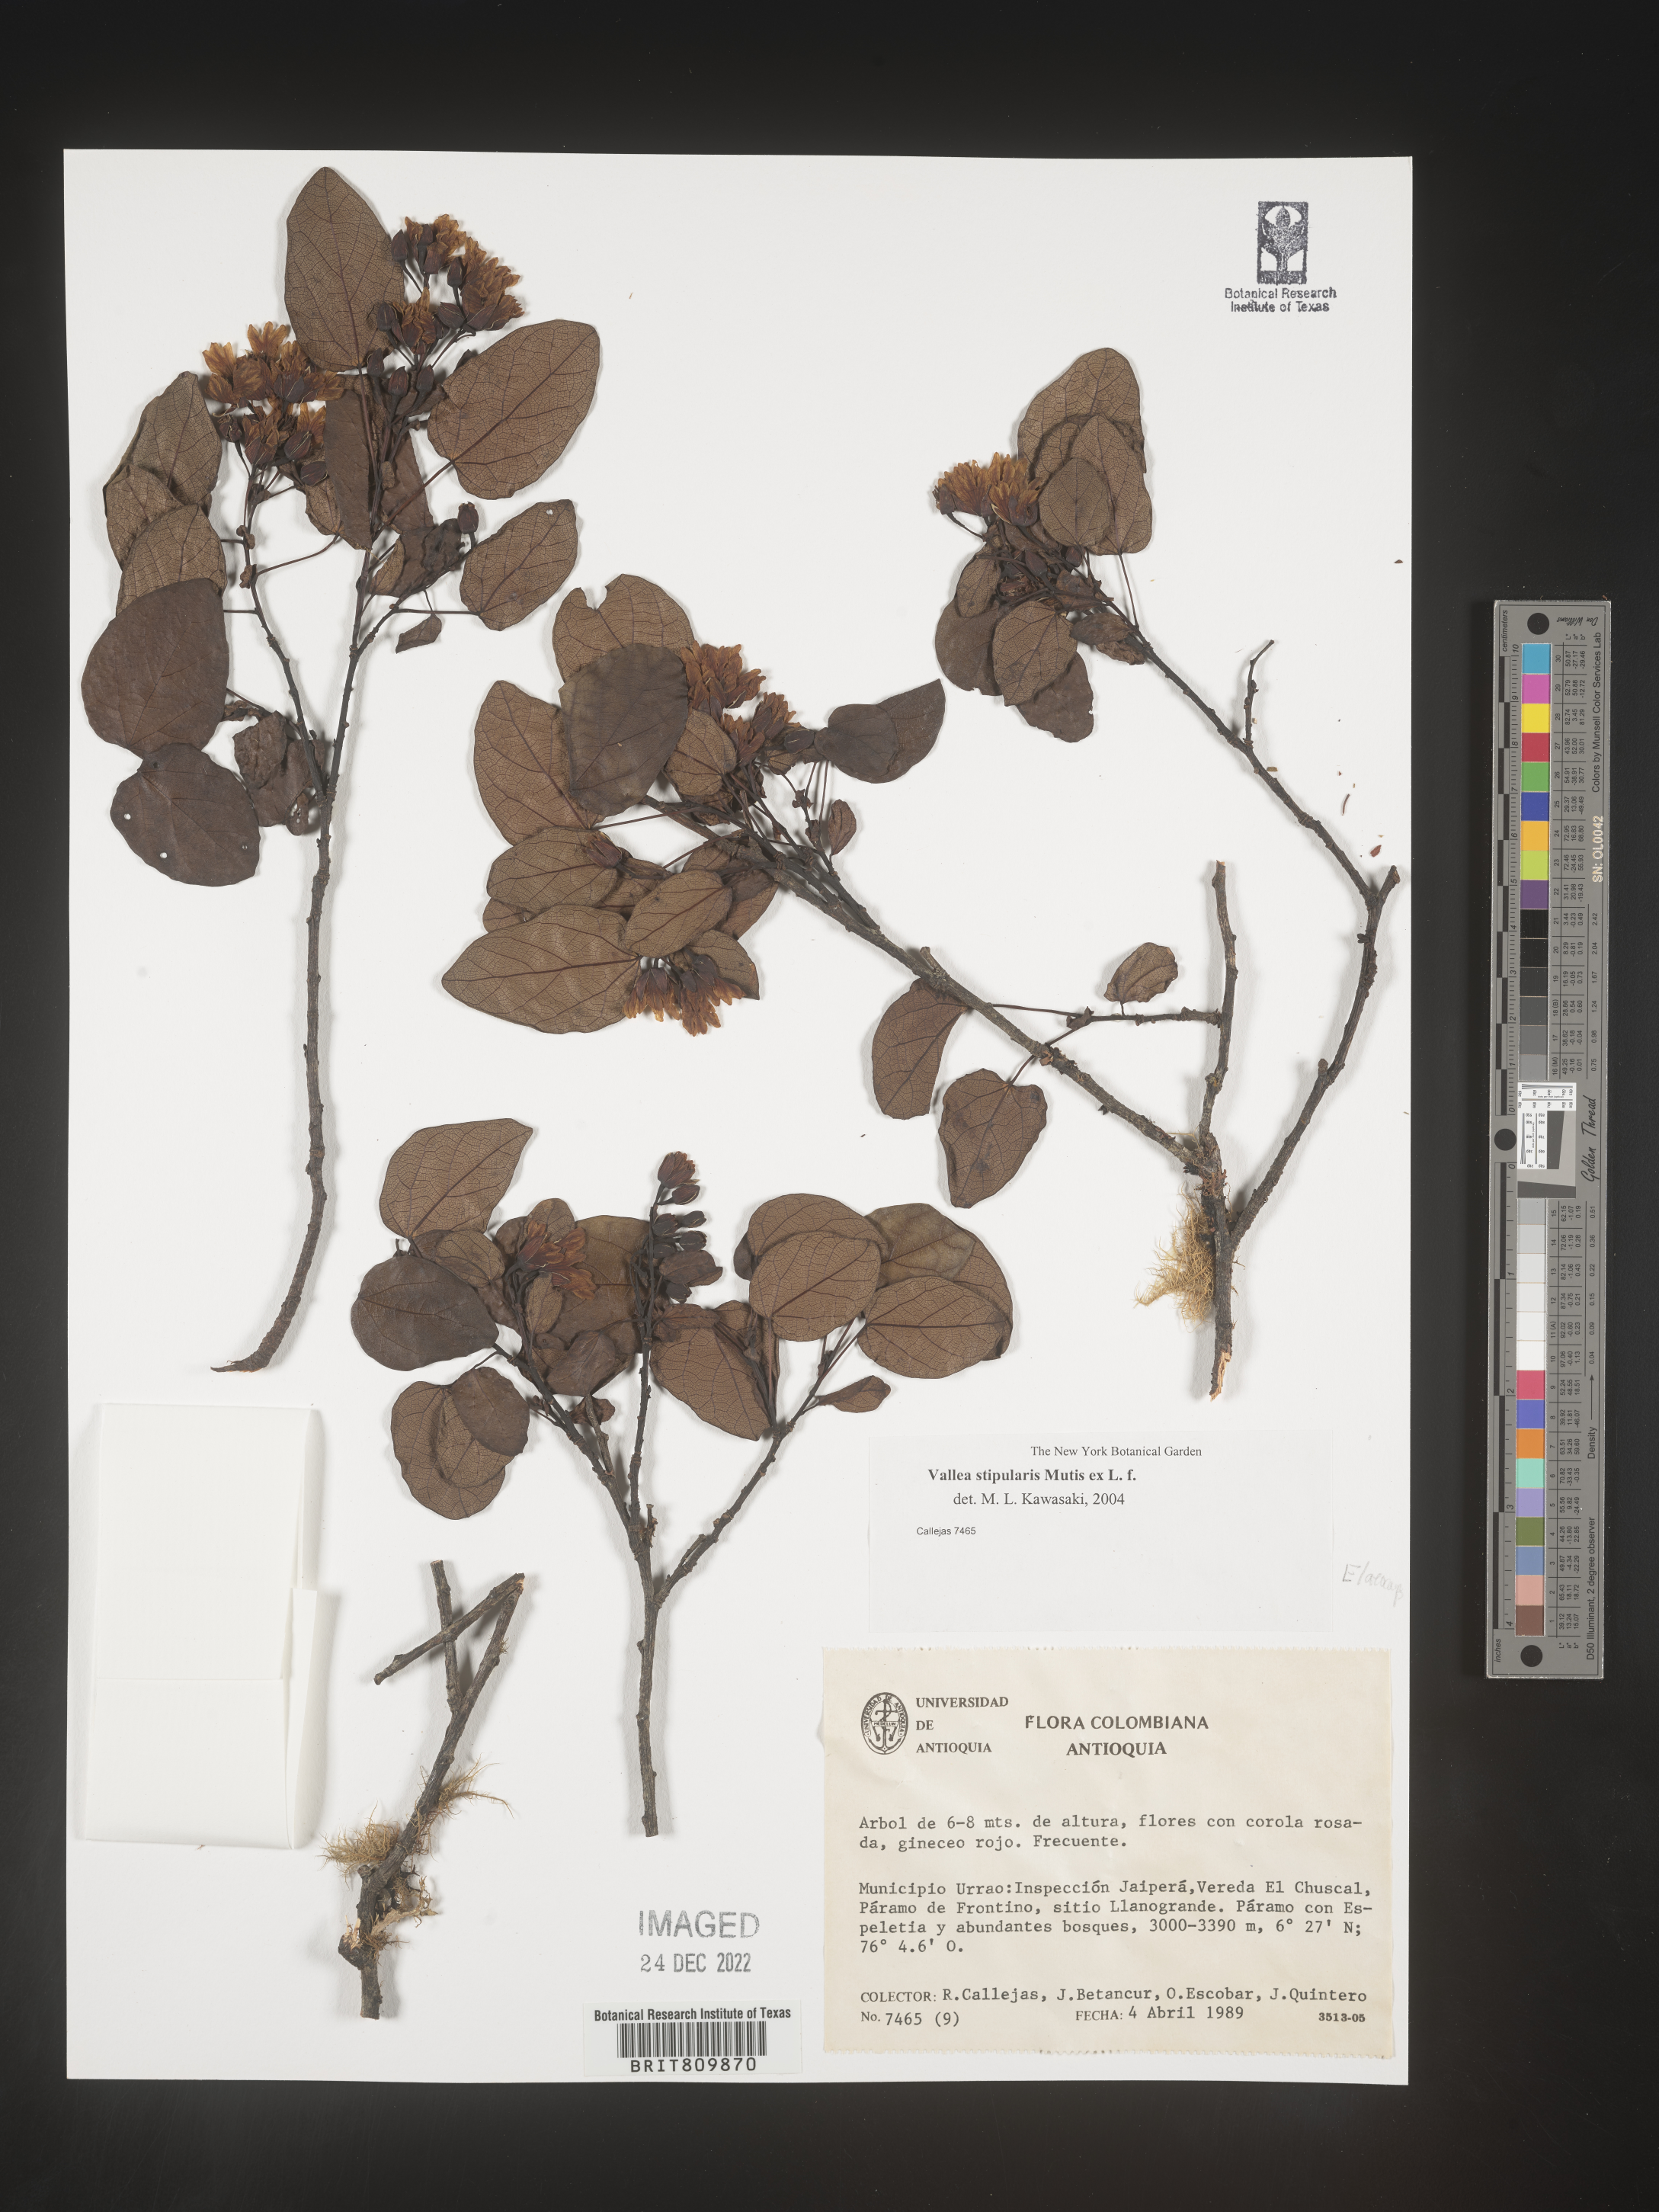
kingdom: Plantae
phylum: Tracheophyta
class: Magnoliopsida
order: Oxalidales
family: Elaeocarpaceae
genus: Vallea
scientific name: Vallea
